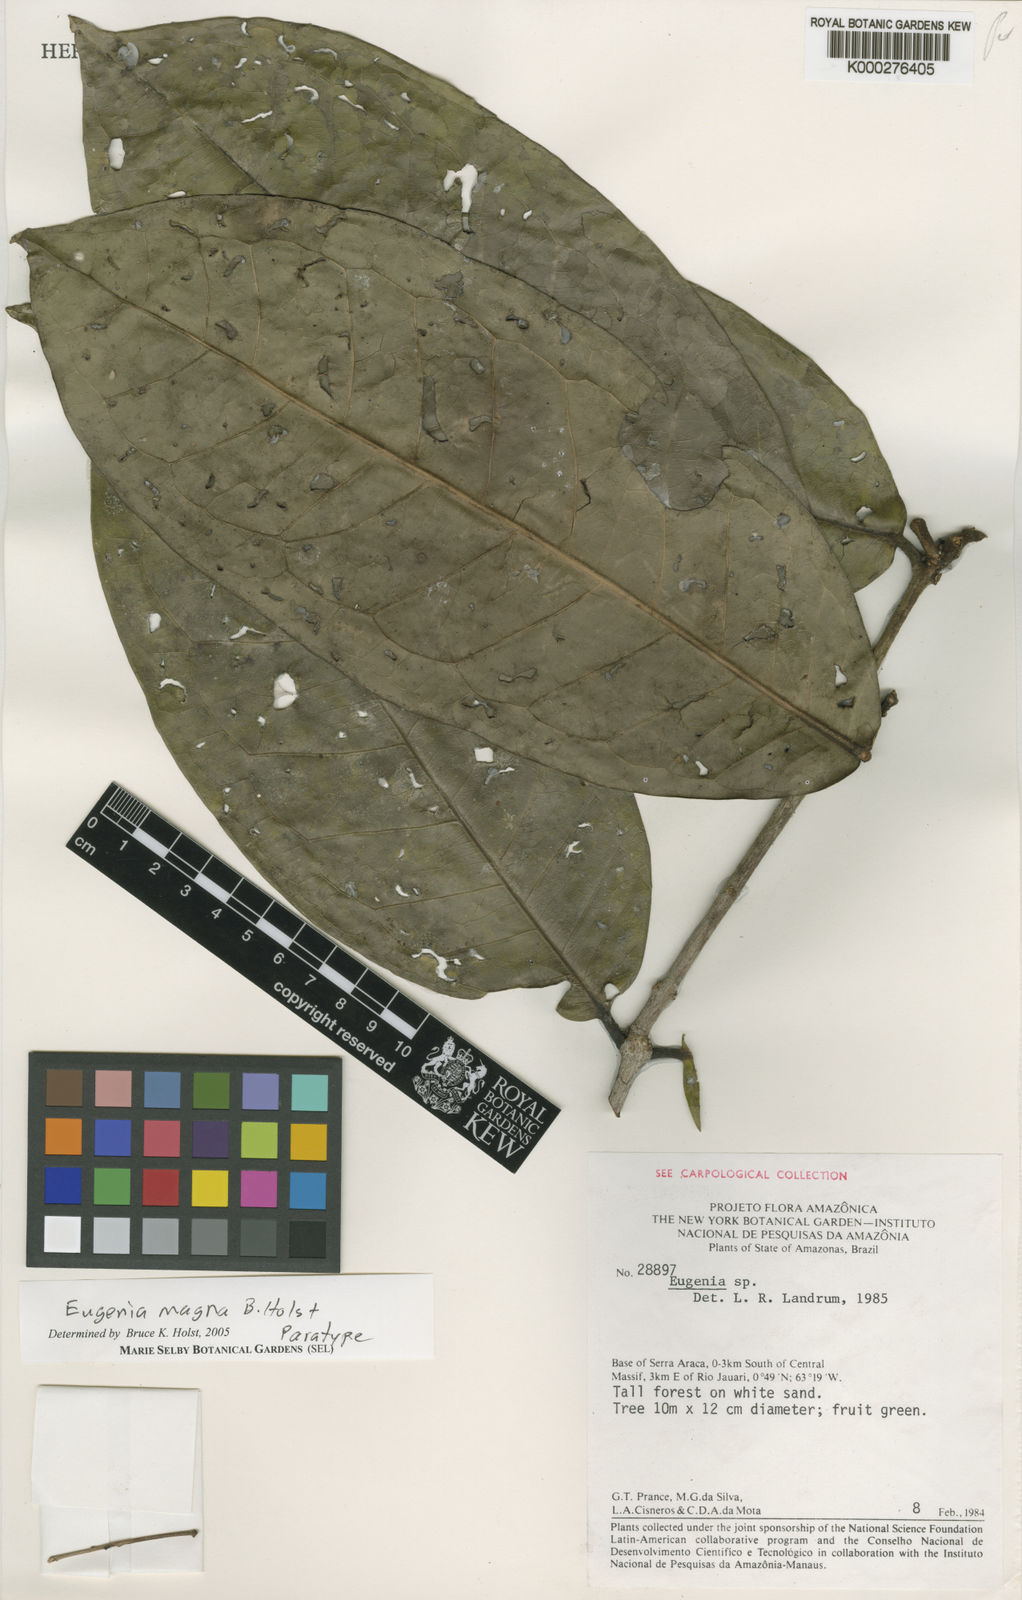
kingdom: Plantae
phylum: Tracheophyta
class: Magnoliopsida
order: Myrtales
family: Myrtaceae
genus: Eugenia
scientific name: Eugenia magna
